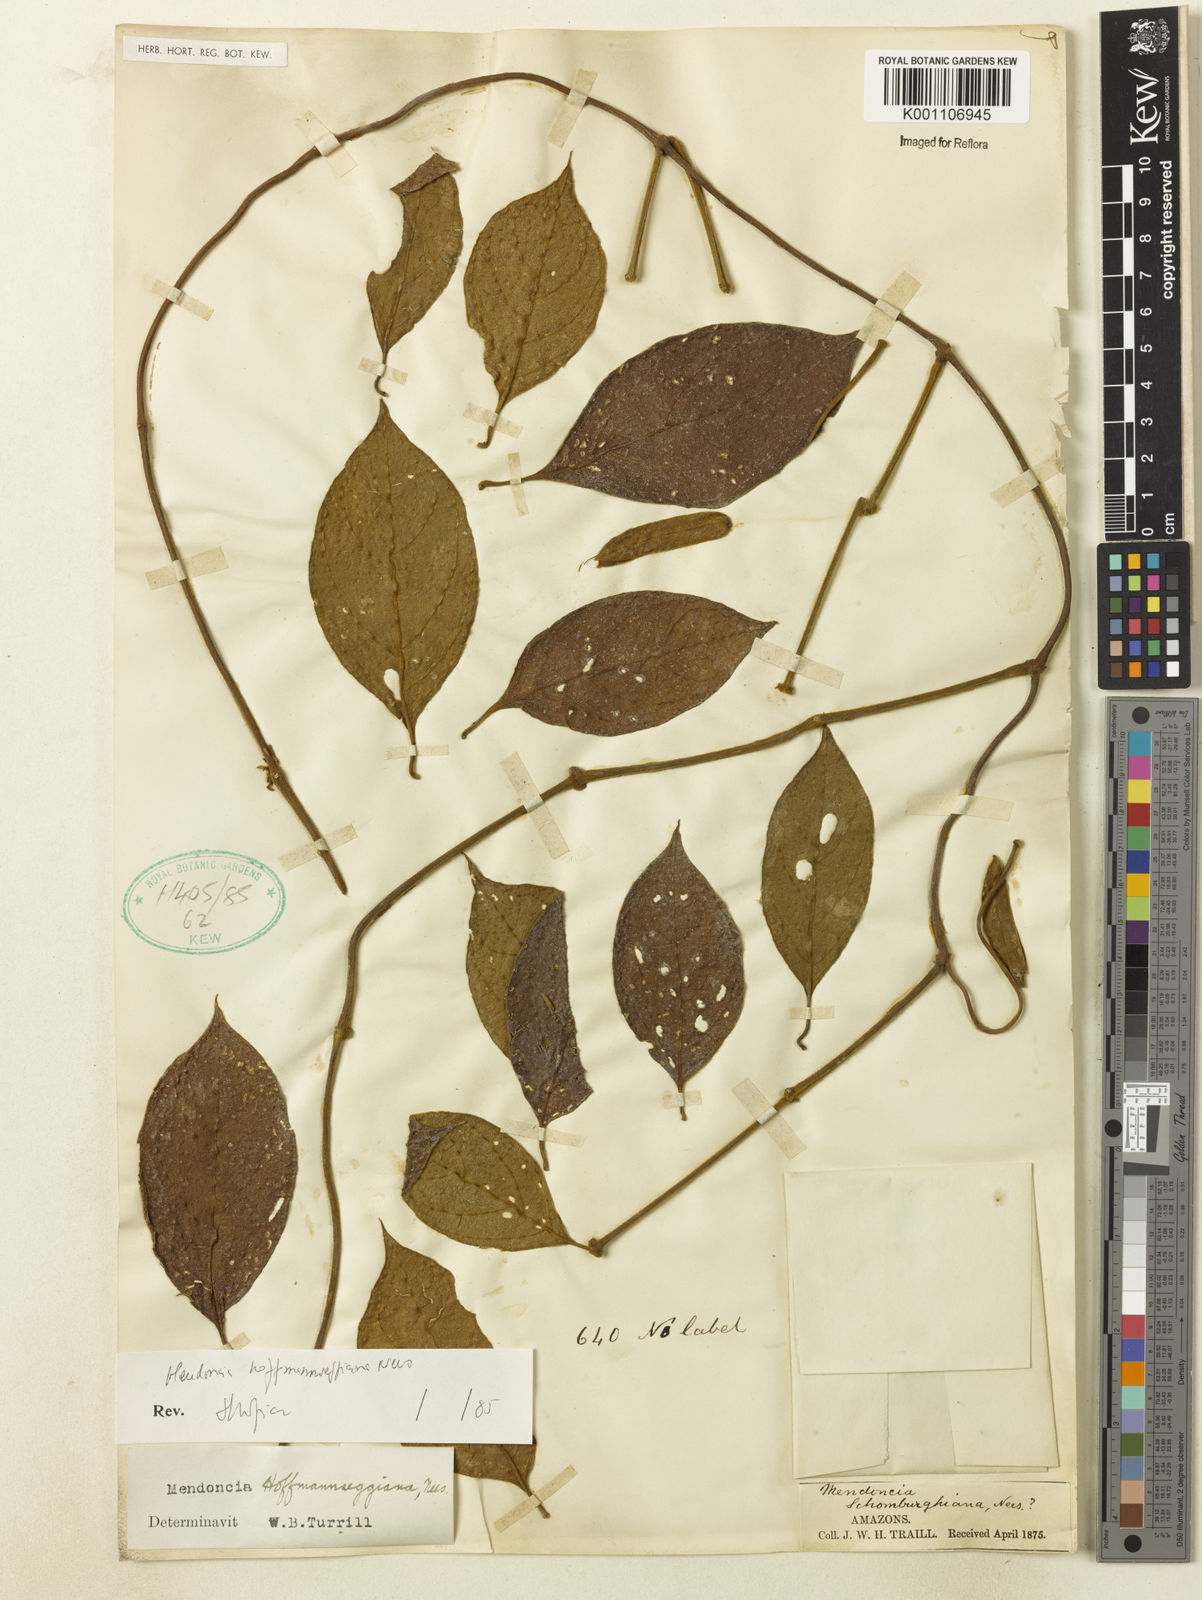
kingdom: Plantae
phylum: Tracheophyta
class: Magnoliopsida
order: Lamiales
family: Acanthaceae
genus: Mendoncia
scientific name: Mendoncia hoffmannseggiana
